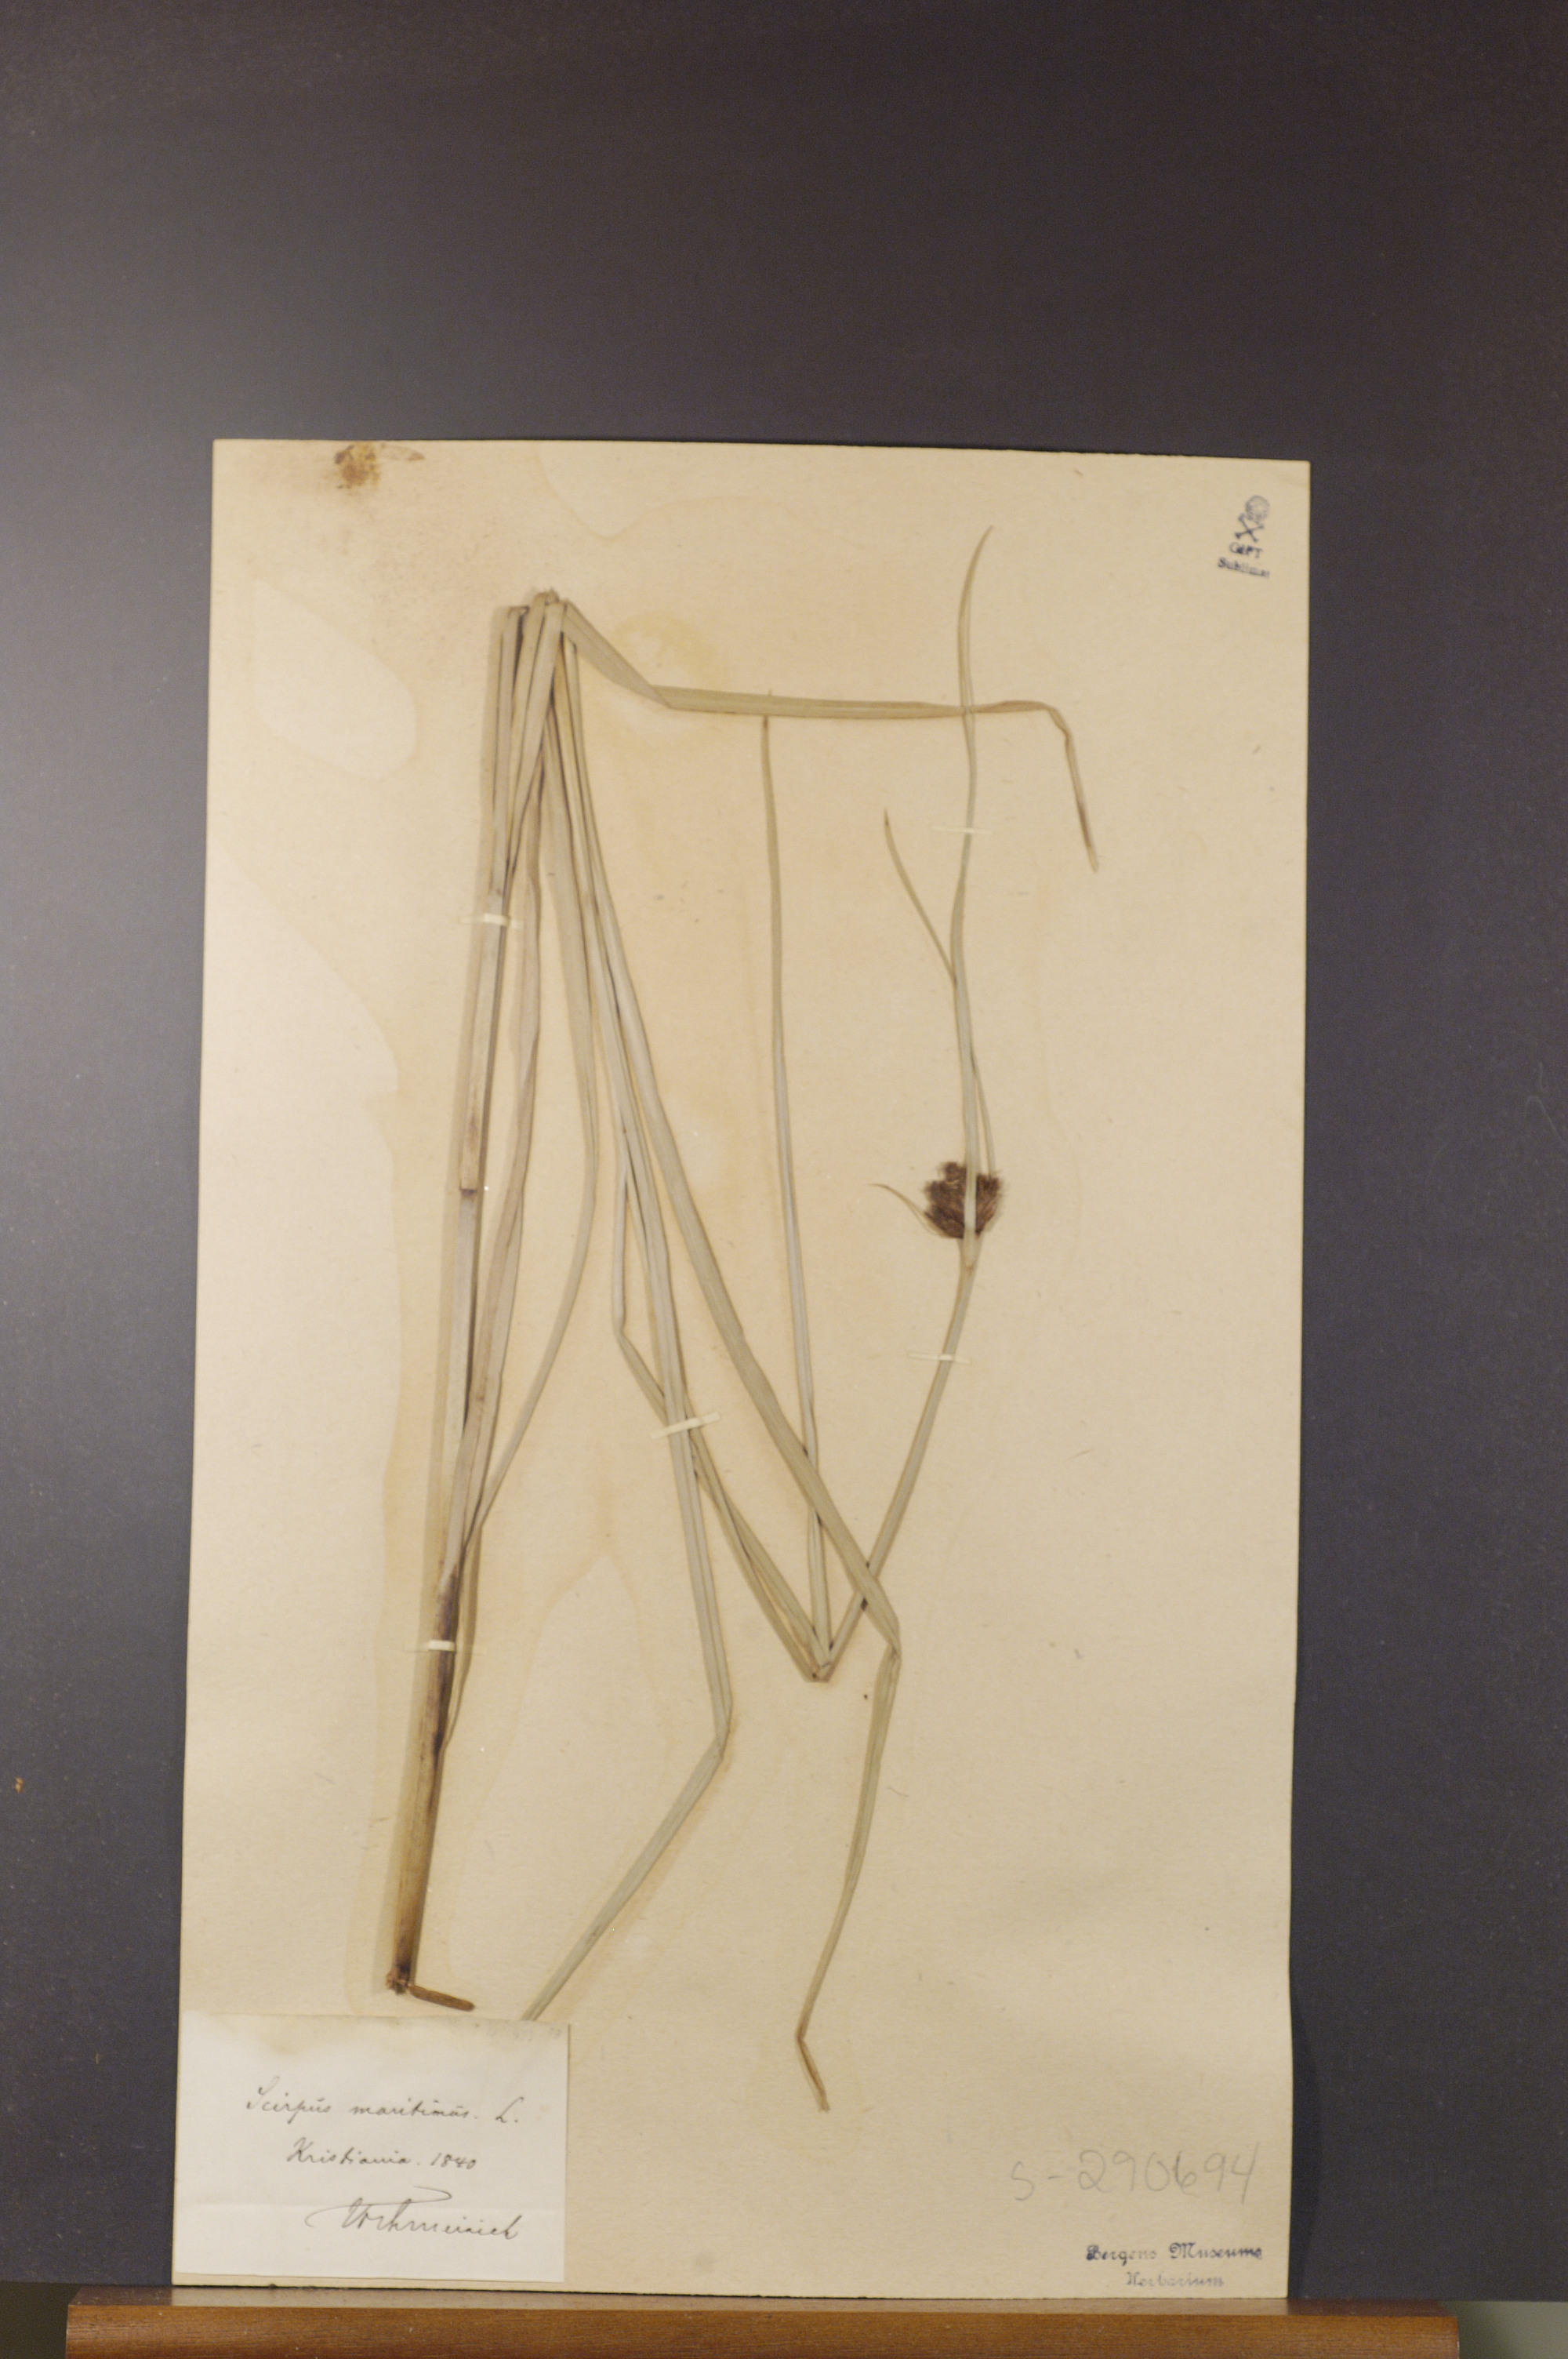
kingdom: Plantae
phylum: Tracheophyta
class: Liliopsida
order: Poales
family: Cyperaceae
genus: Bolboschoenus
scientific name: Bolboschoenus maritimus
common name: Sea club-rush
